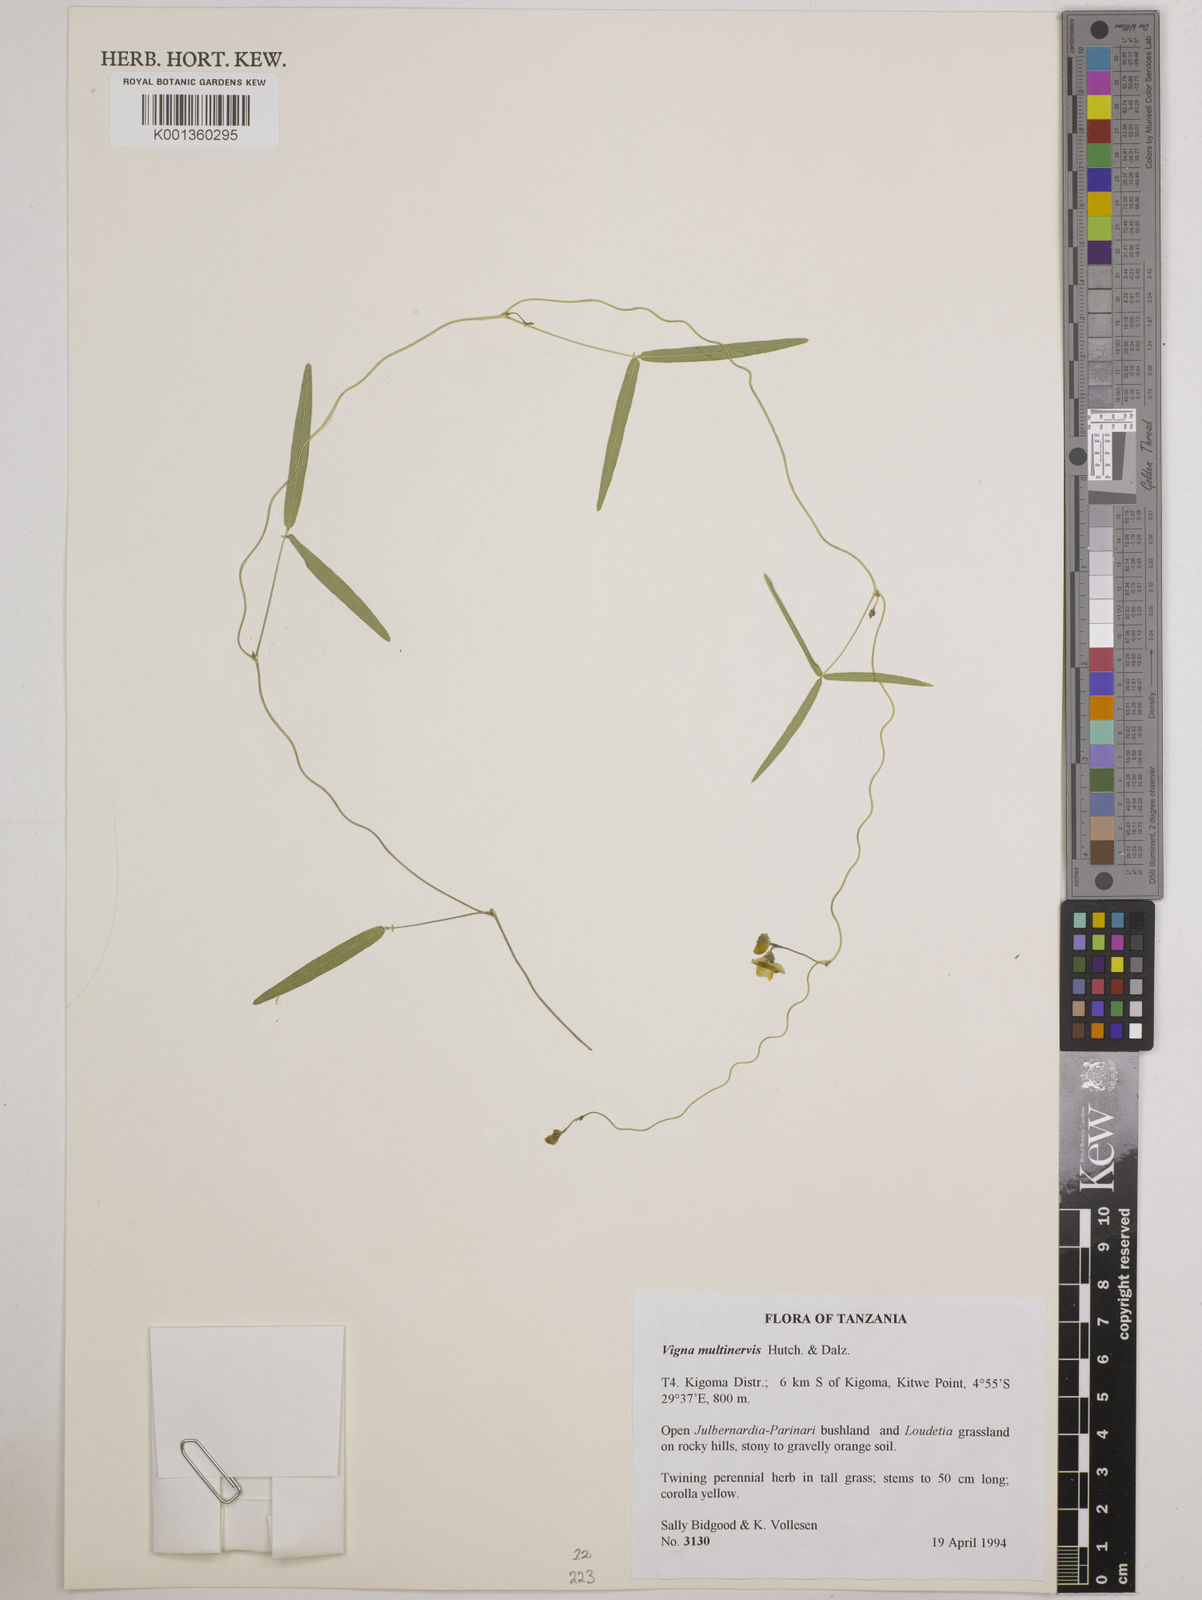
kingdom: Plantae
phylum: Tracheophyta
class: Magnoliopsida
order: Fabales
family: Fabaceae
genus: Vigna
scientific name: Vigna multinervis
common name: Fula-pulaar
